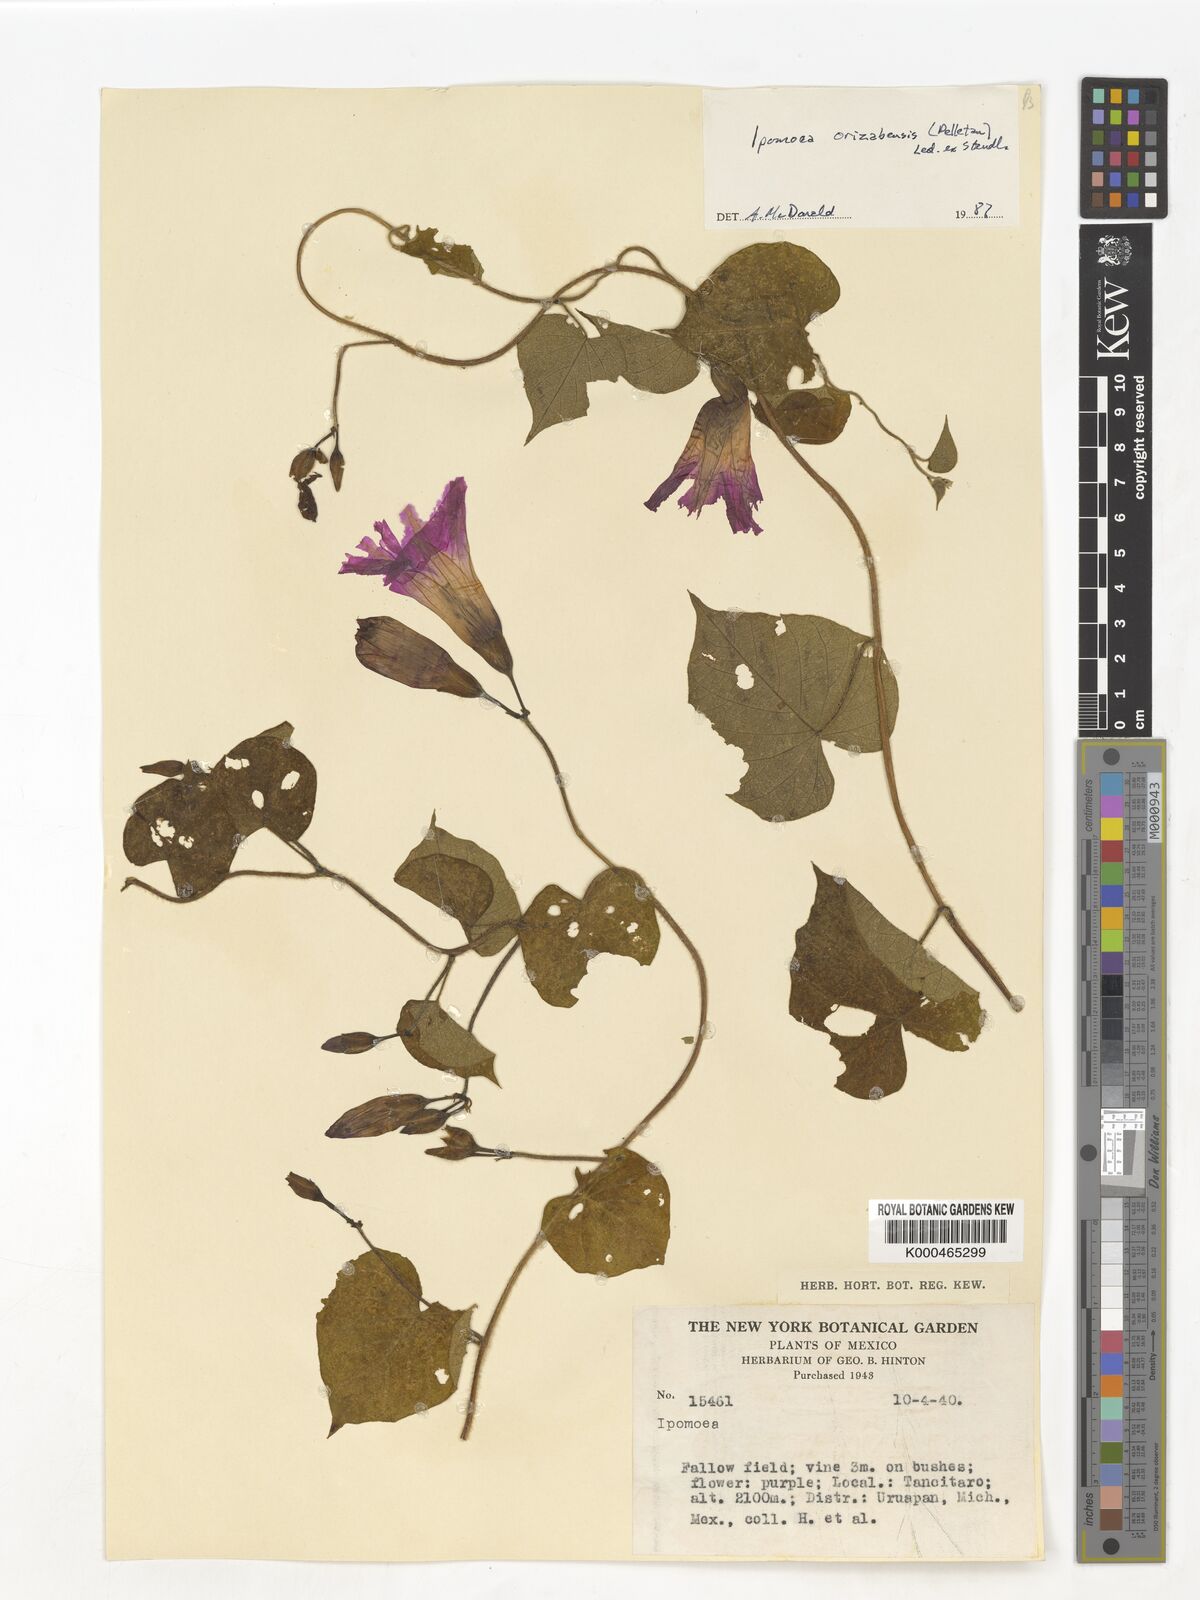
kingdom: Plantae
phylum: Tracheophyta
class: Magnoliopsida
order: Solanales
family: Convolvulaceae
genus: Ipomoea
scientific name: Ipomoea orizabensis
